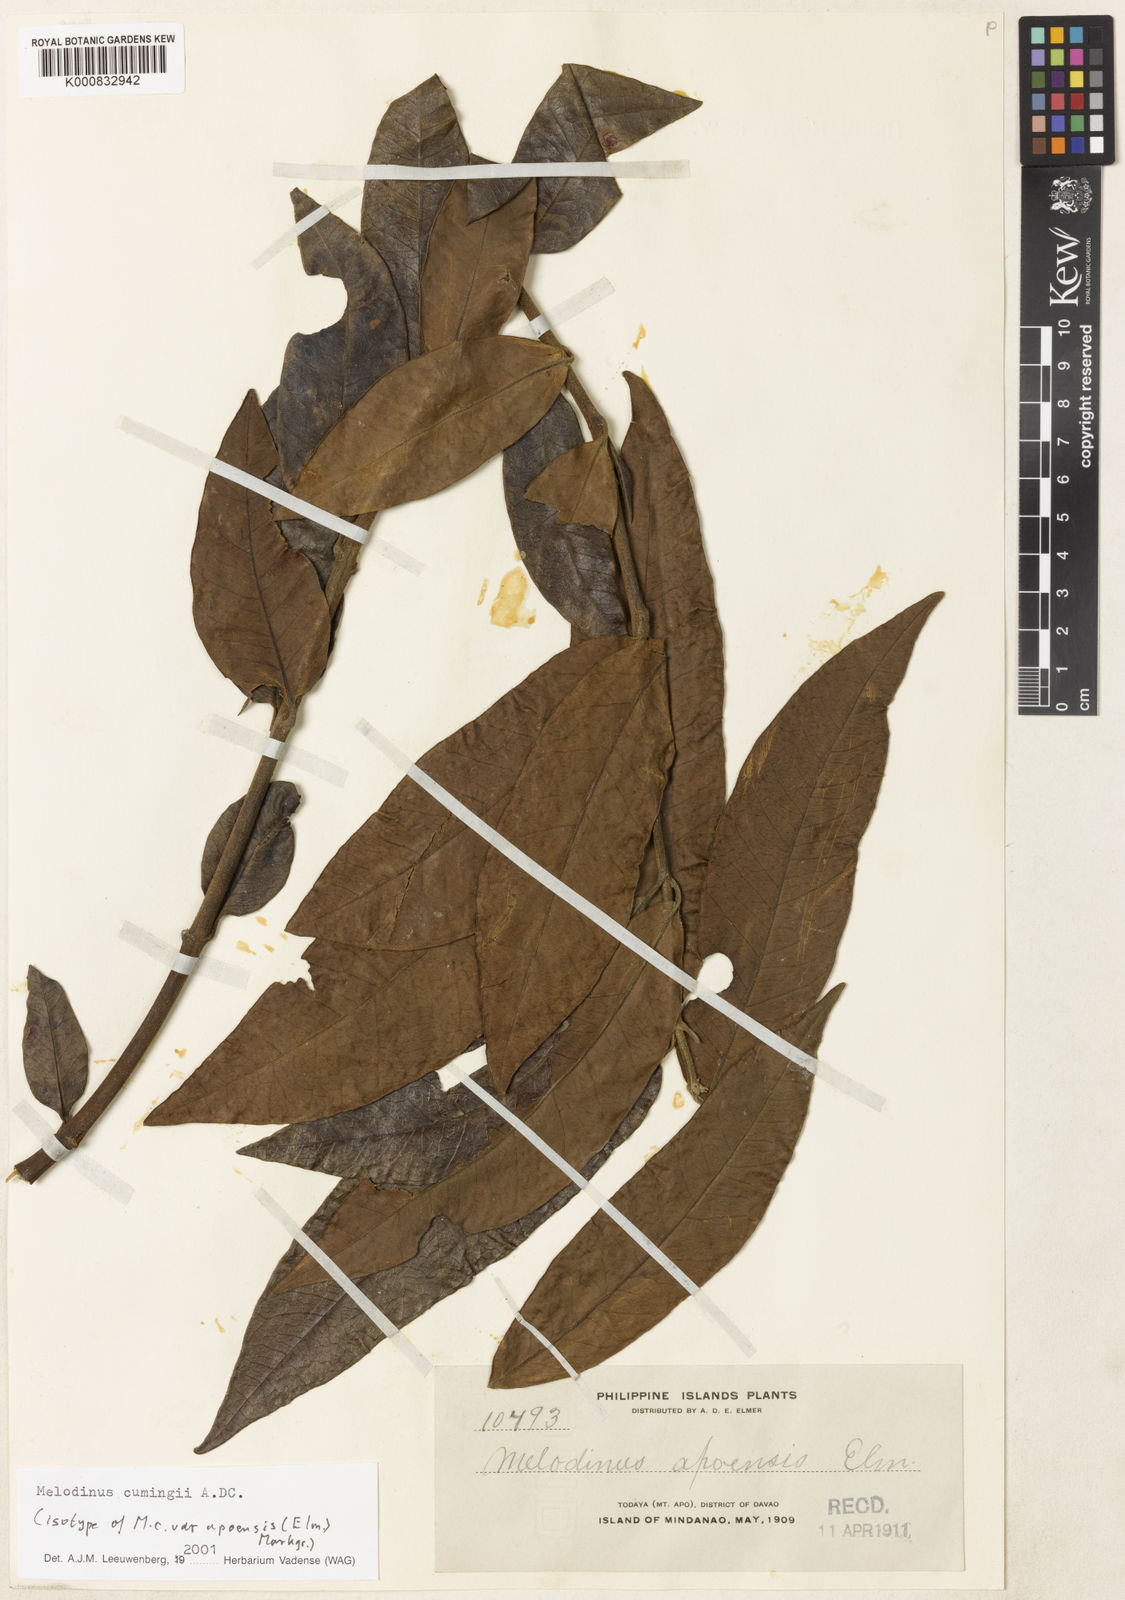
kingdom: Plantae
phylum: Tracheophyta
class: Magnoliopsida
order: Gentianales
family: Apocynaceae
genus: Melodinus
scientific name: Melodinus cumingii
